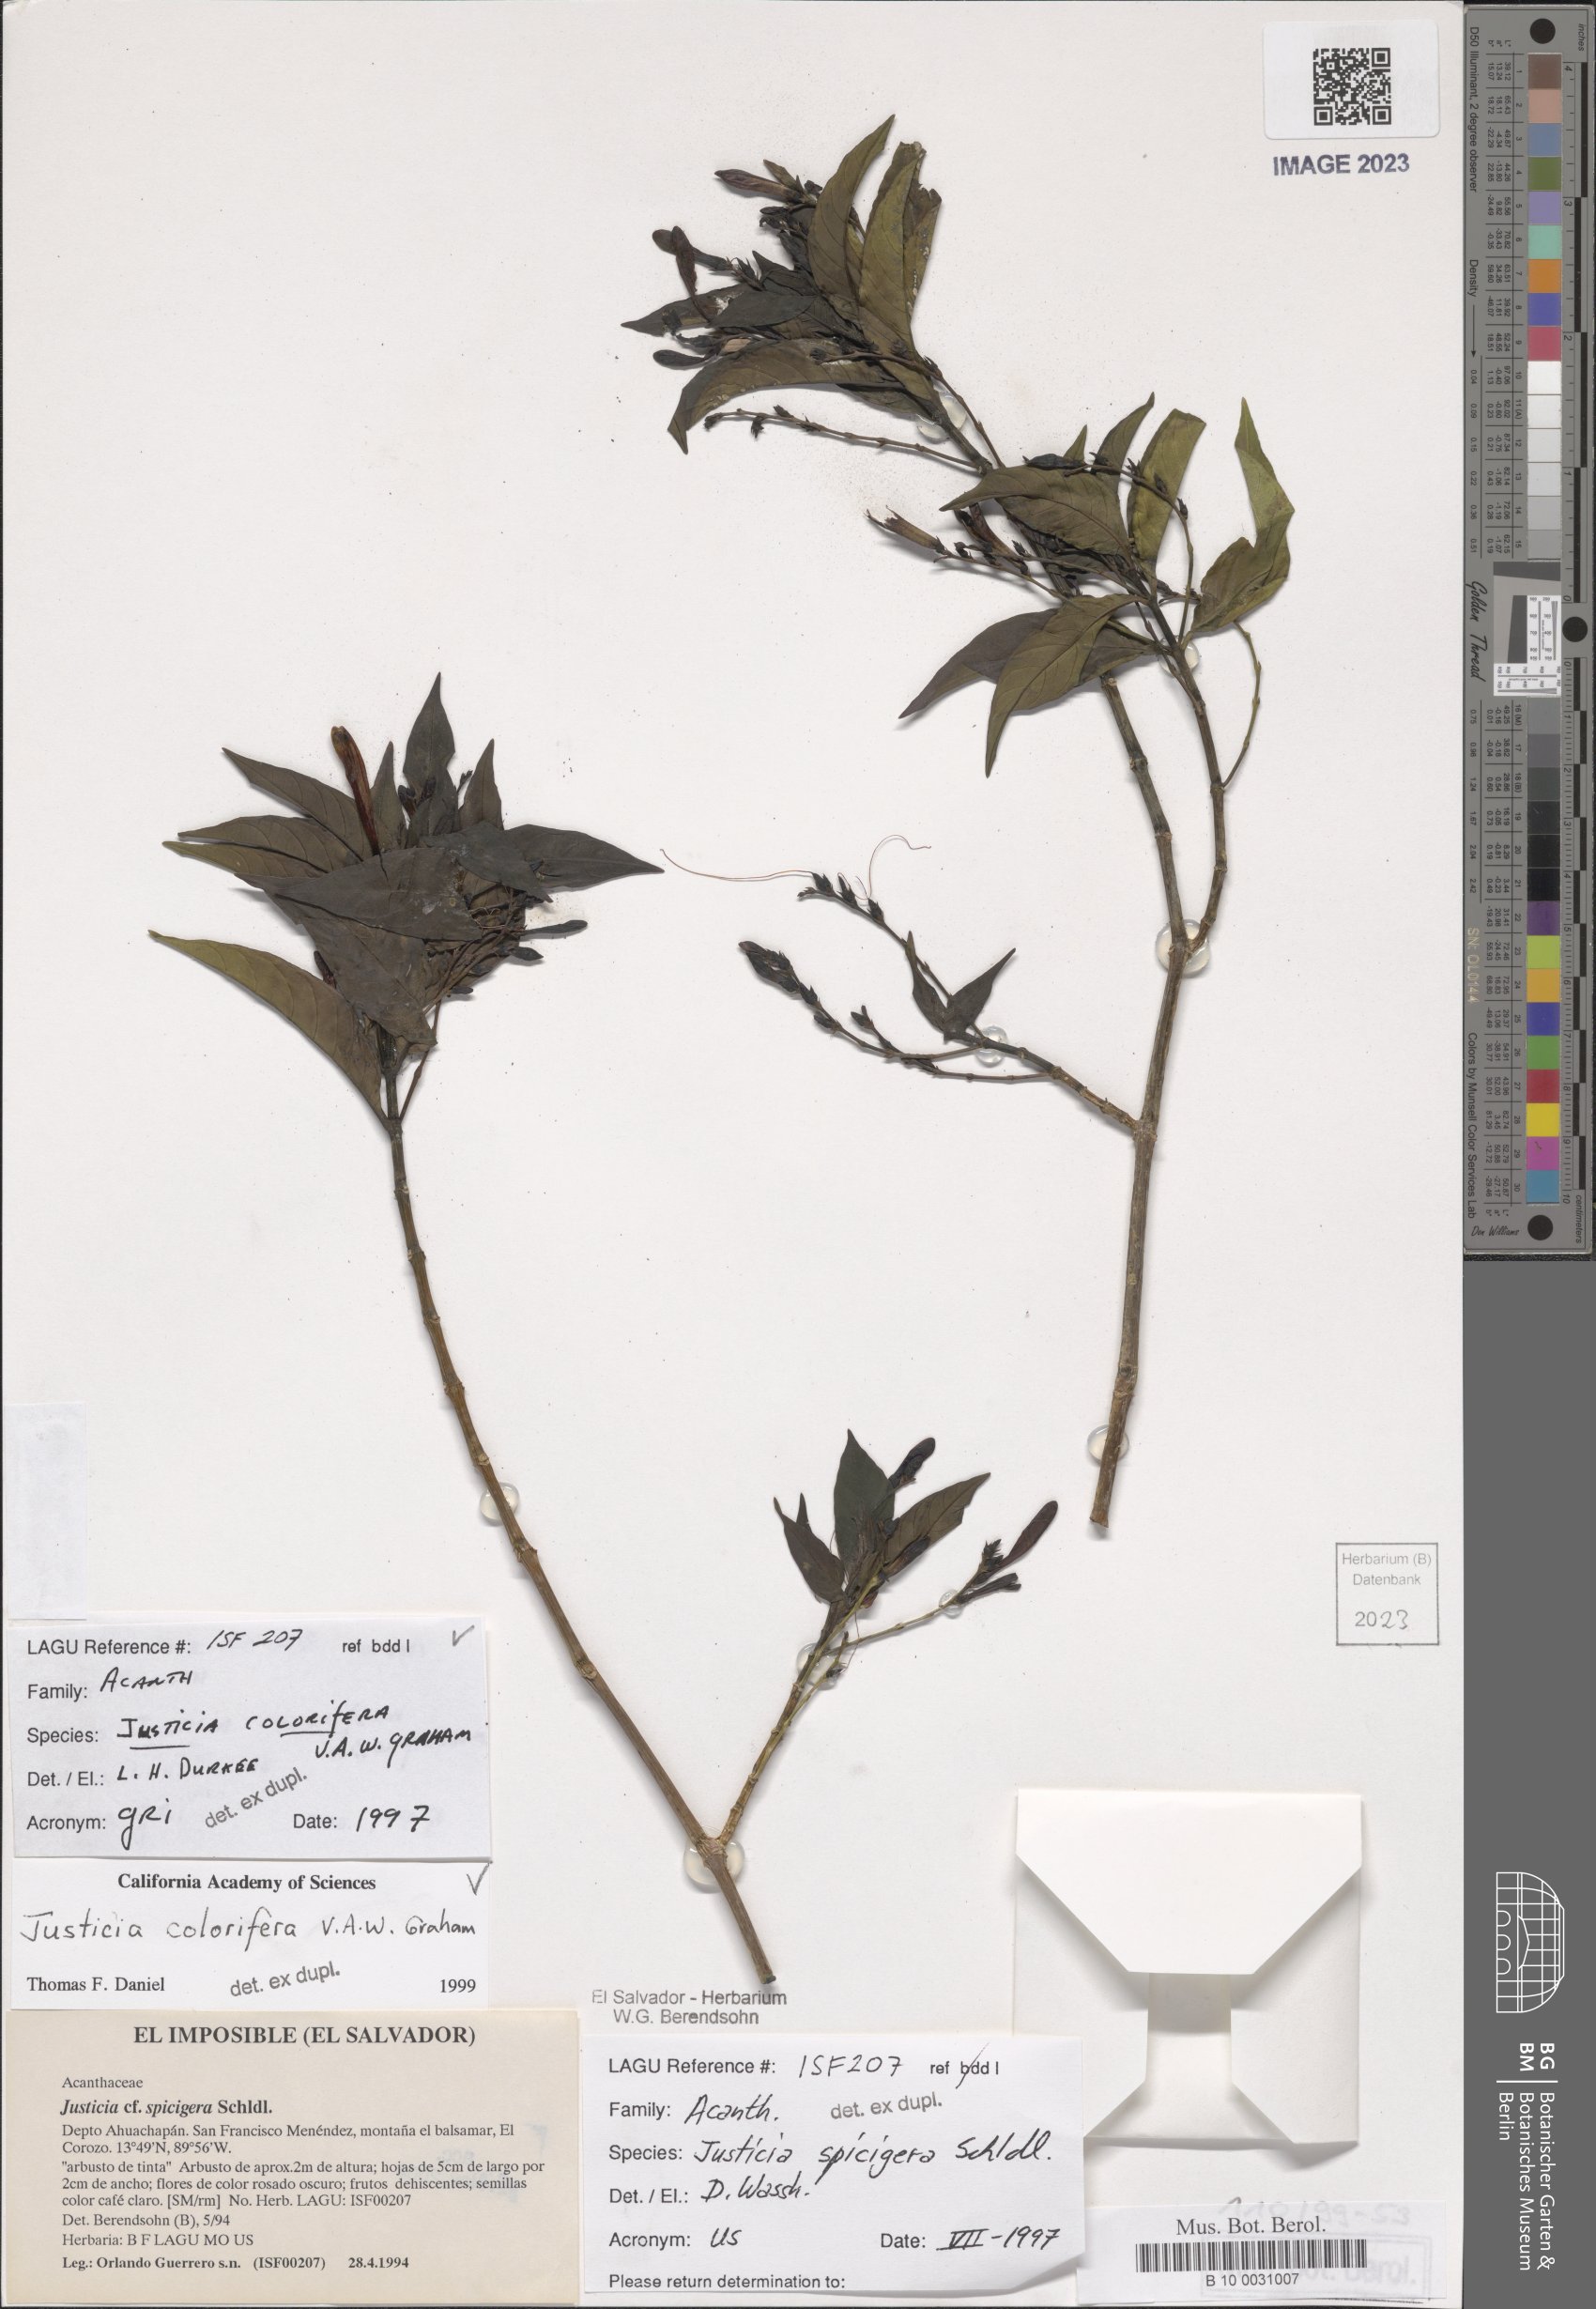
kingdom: Plantae
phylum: Tracheophyta
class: Magnoliopsida
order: Lamiales
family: Acanthaceae
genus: Justicia
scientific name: Justicia tinctoriella
